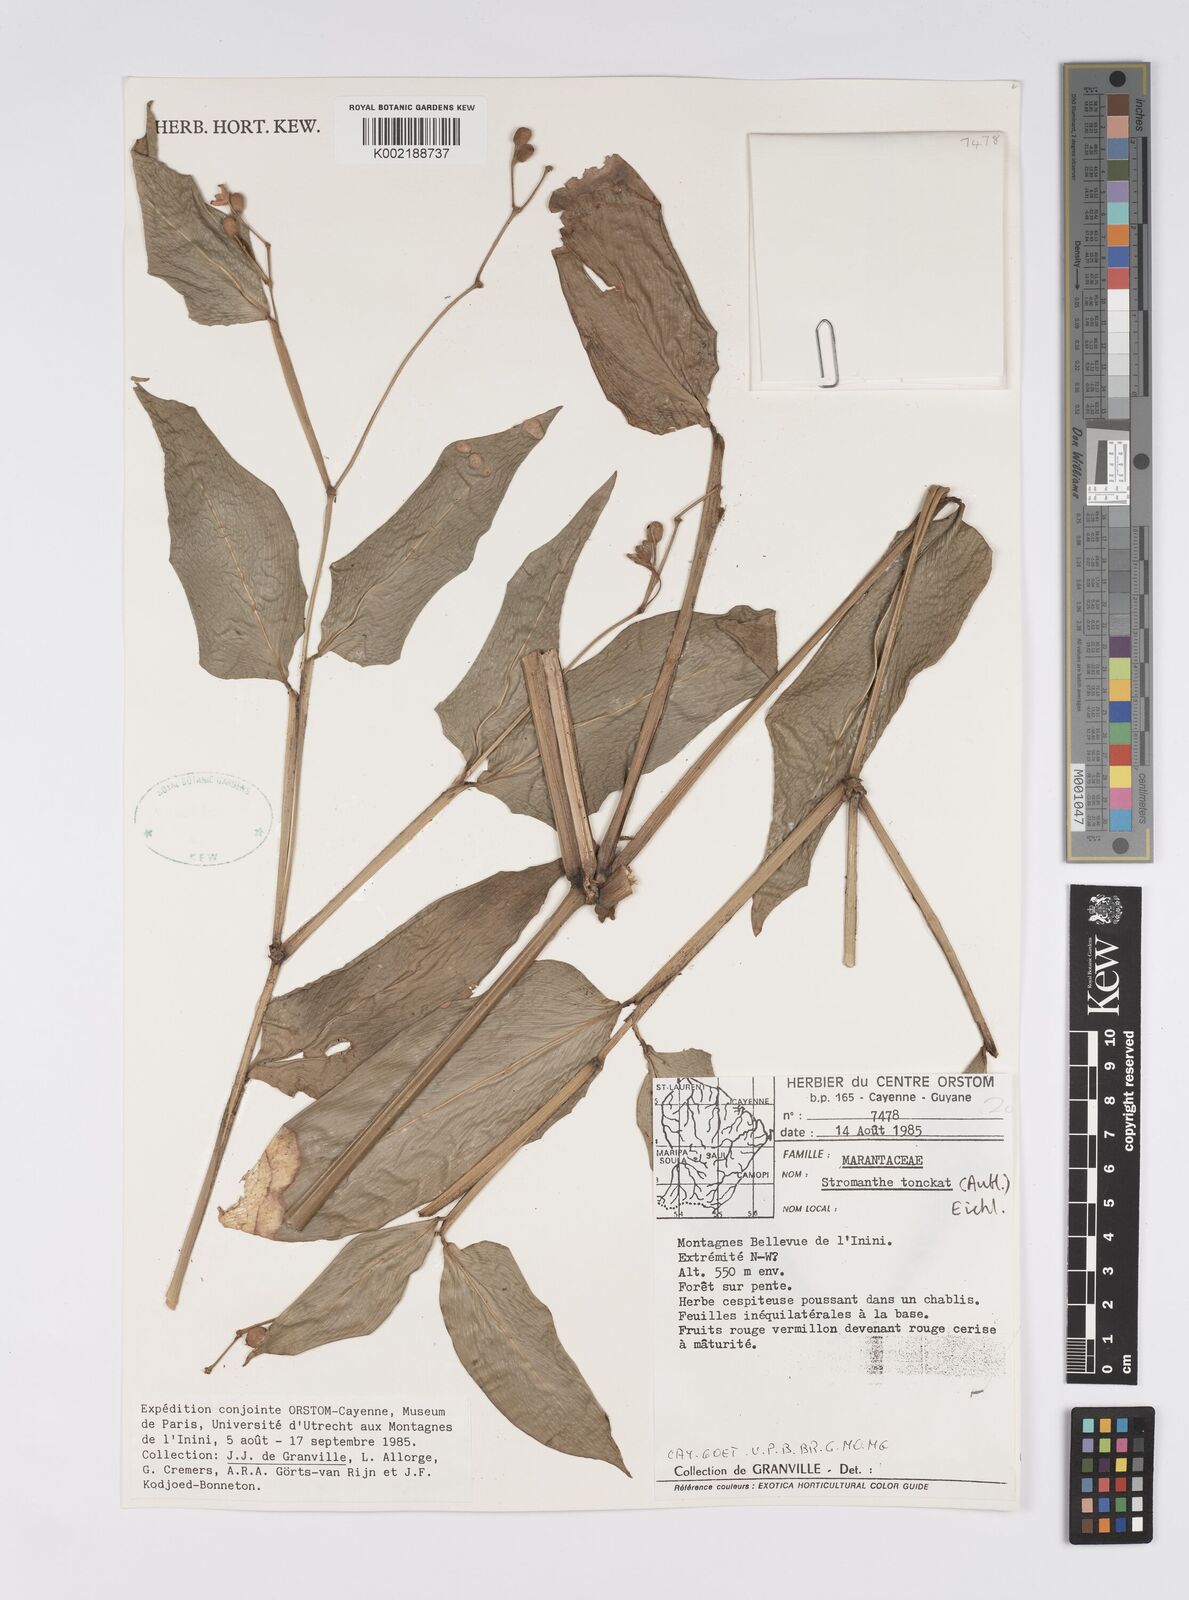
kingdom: Plantae
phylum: Tracheophyta
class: Liliopsida
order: Zingiberales
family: Marantaceae
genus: Stromanthe
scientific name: Stromanthe tonckat
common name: Stromanthe
